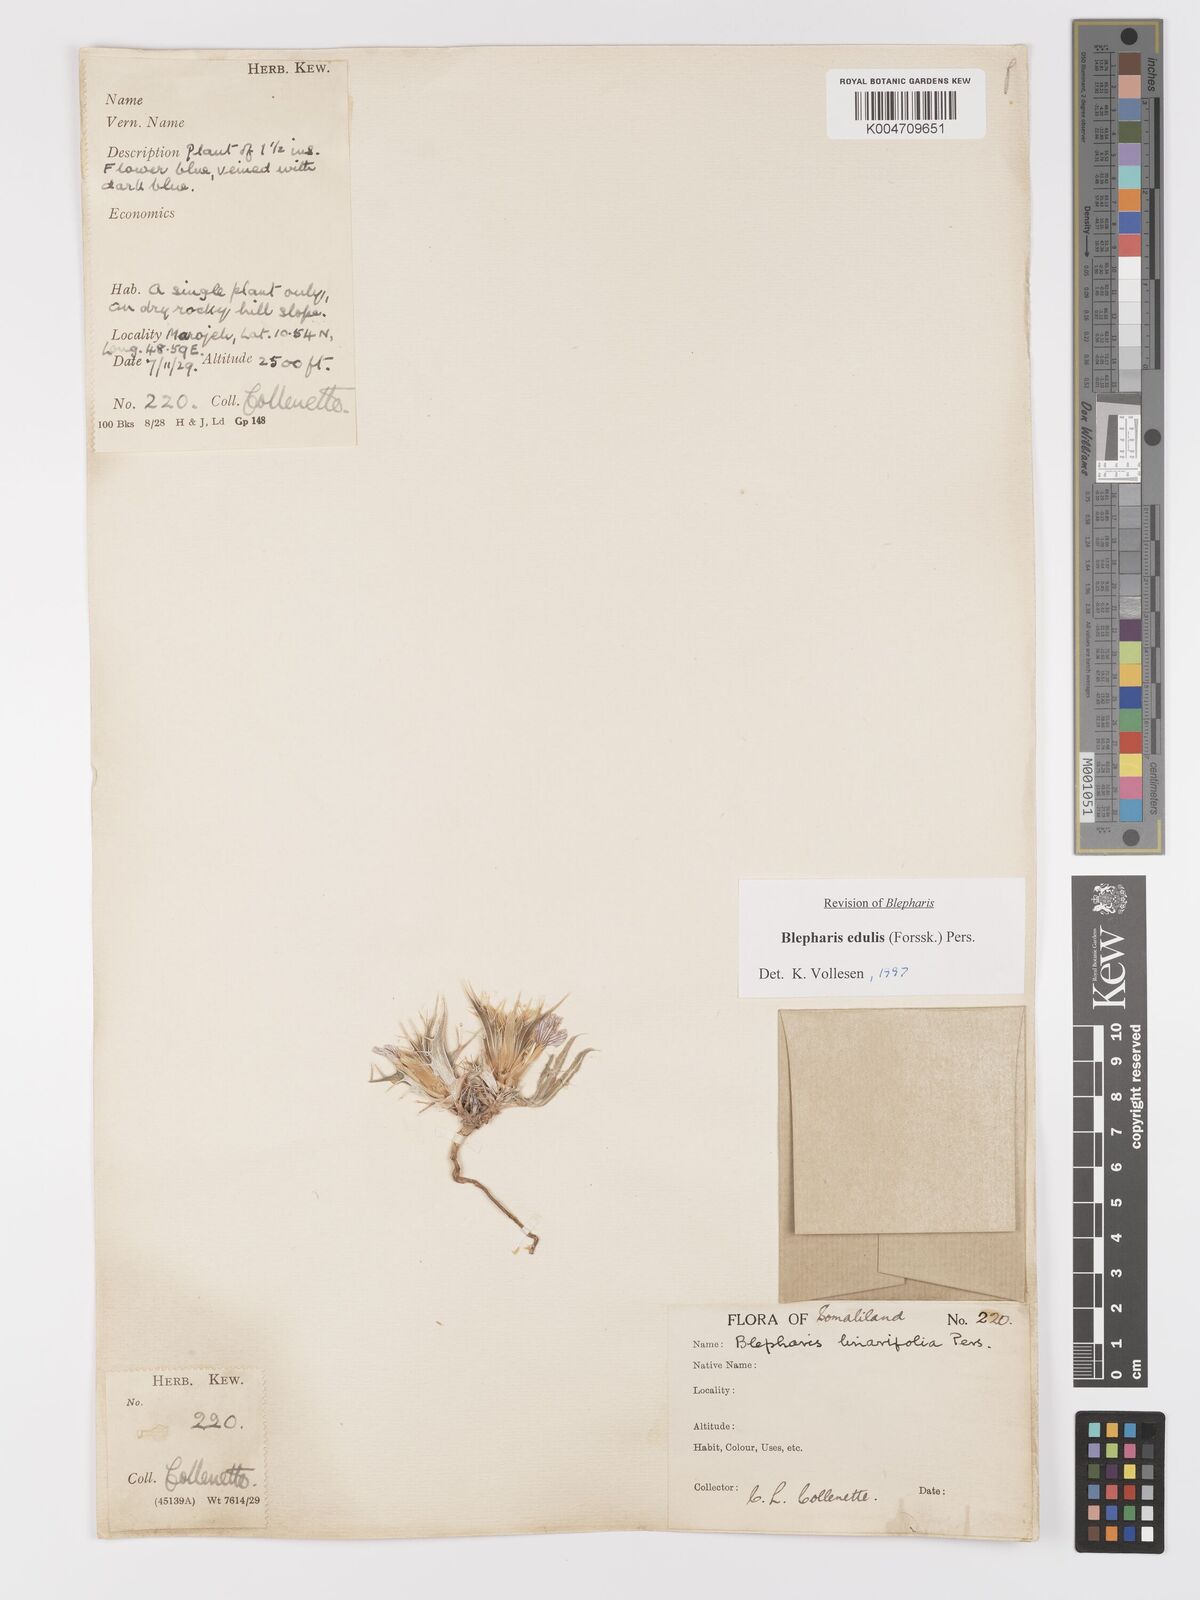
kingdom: Plantae
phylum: Tracheophyta
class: Magnoliopsida
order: Lamiales
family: Acanthaceae
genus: Blepharis
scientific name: Blepharis edulis
